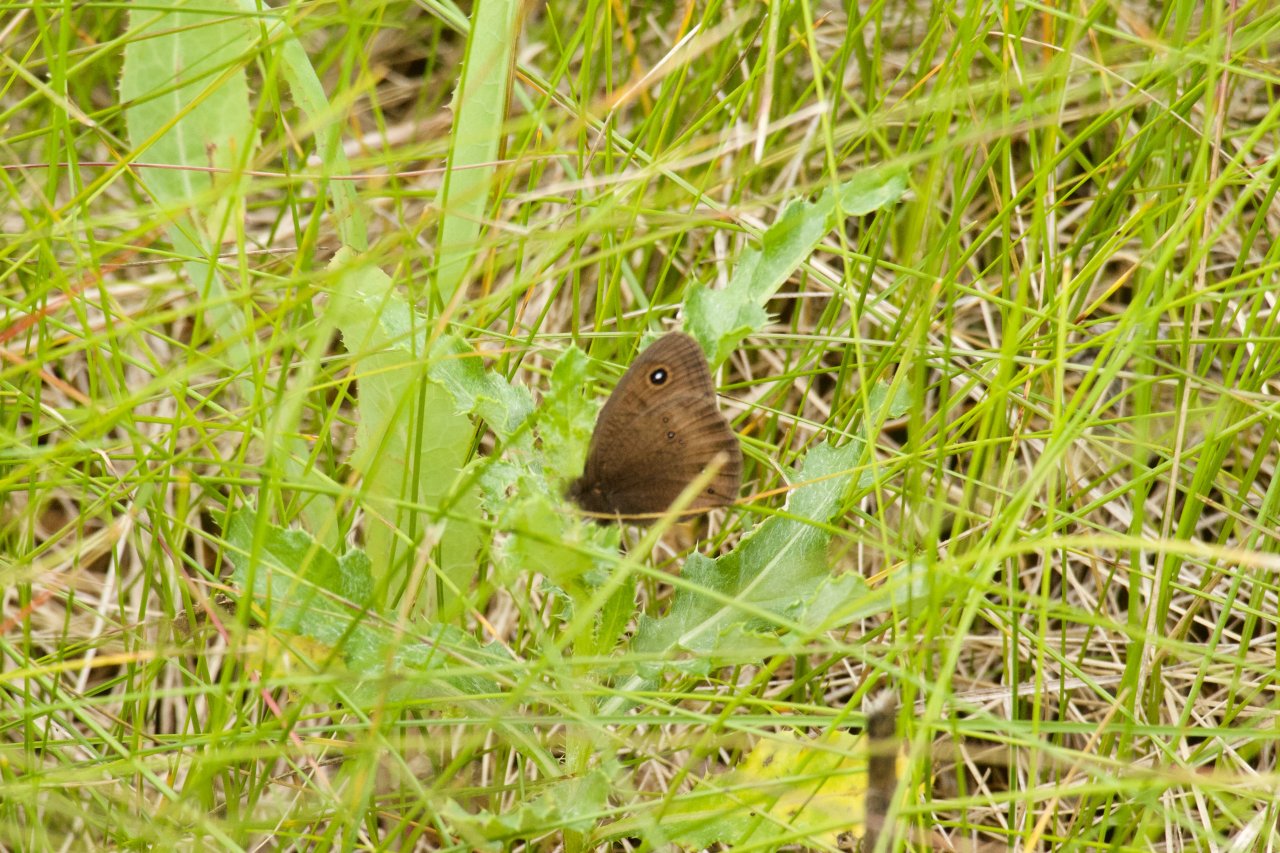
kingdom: Animalia
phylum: Arthropoda
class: Insecta
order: Lepidoptera
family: Nymphalidae
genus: Cercyonis
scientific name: Cercyonis pegala
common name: Common Wood-Nymph
